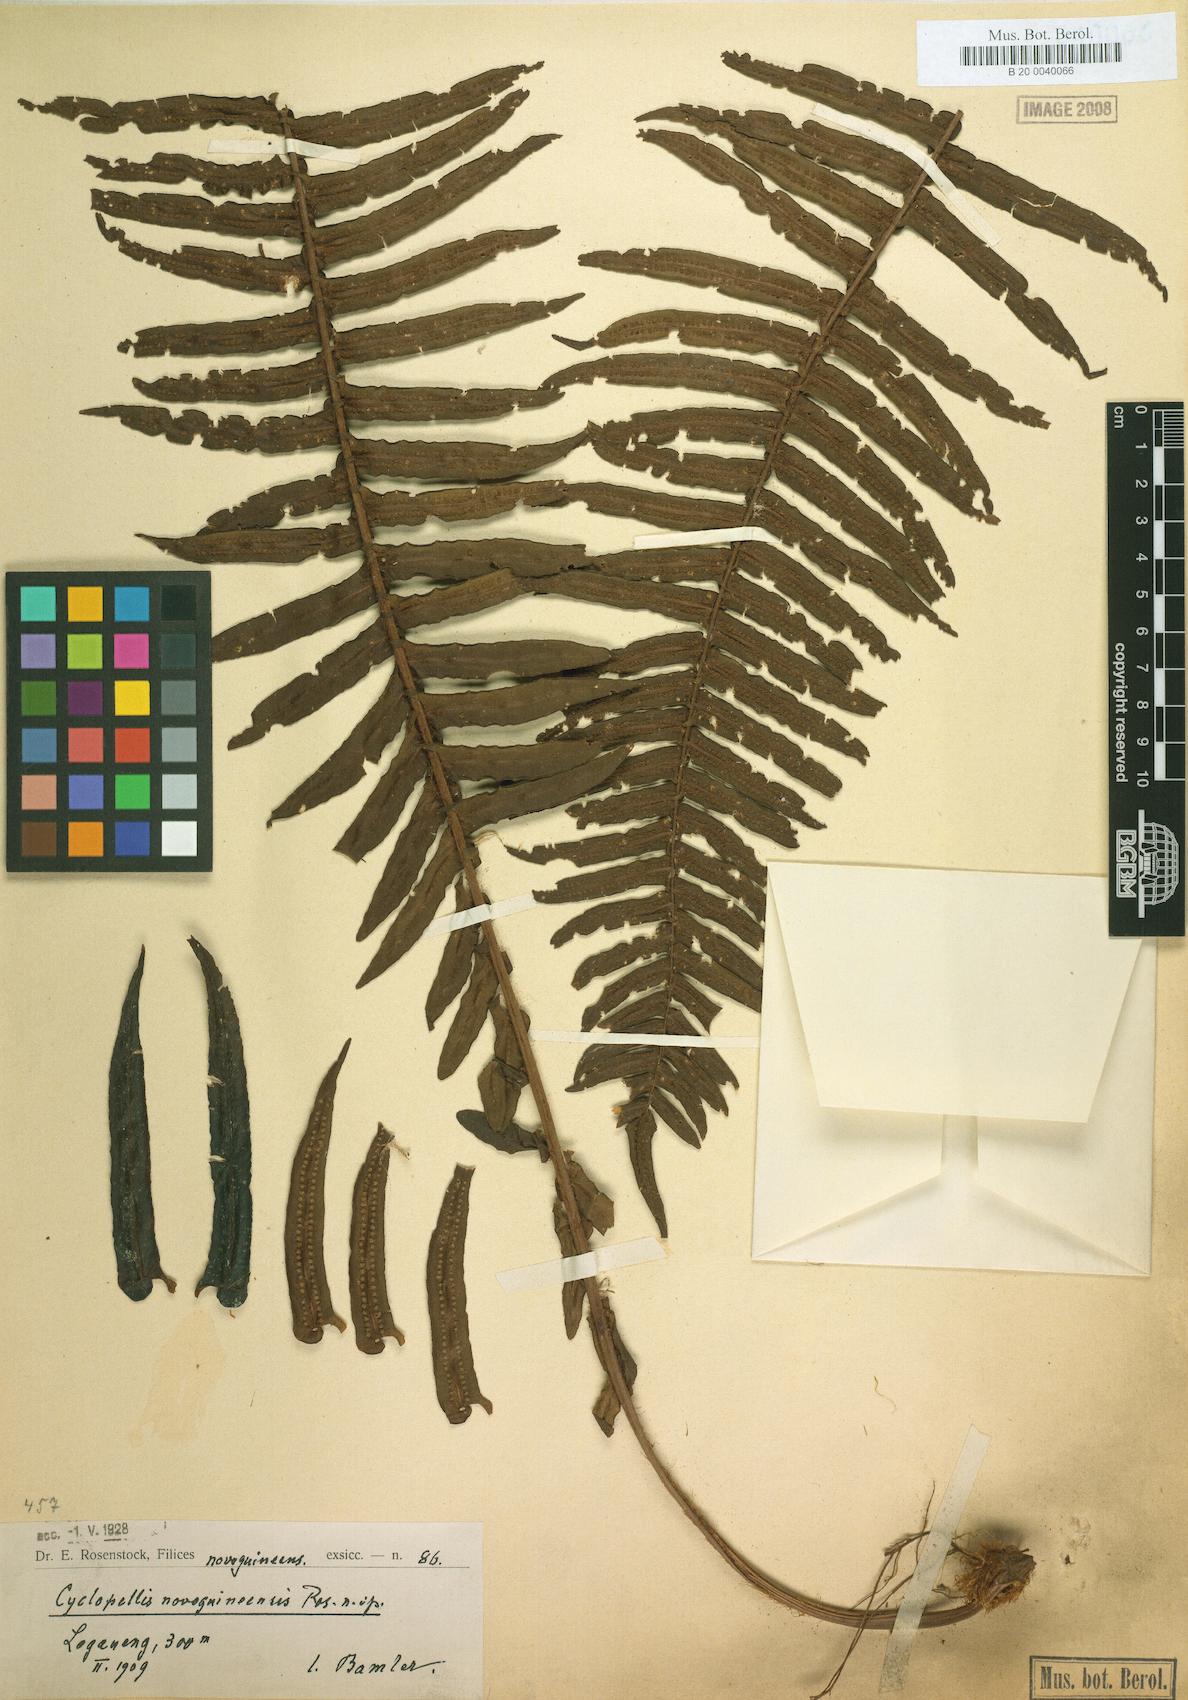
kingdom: Plantae
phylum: Tracheophyta
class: Polypodiopsida
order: Polypodiales
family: Lomariopsidaceae
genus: Cyclopeltis
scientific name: Cyclopeltis novoguineensis
